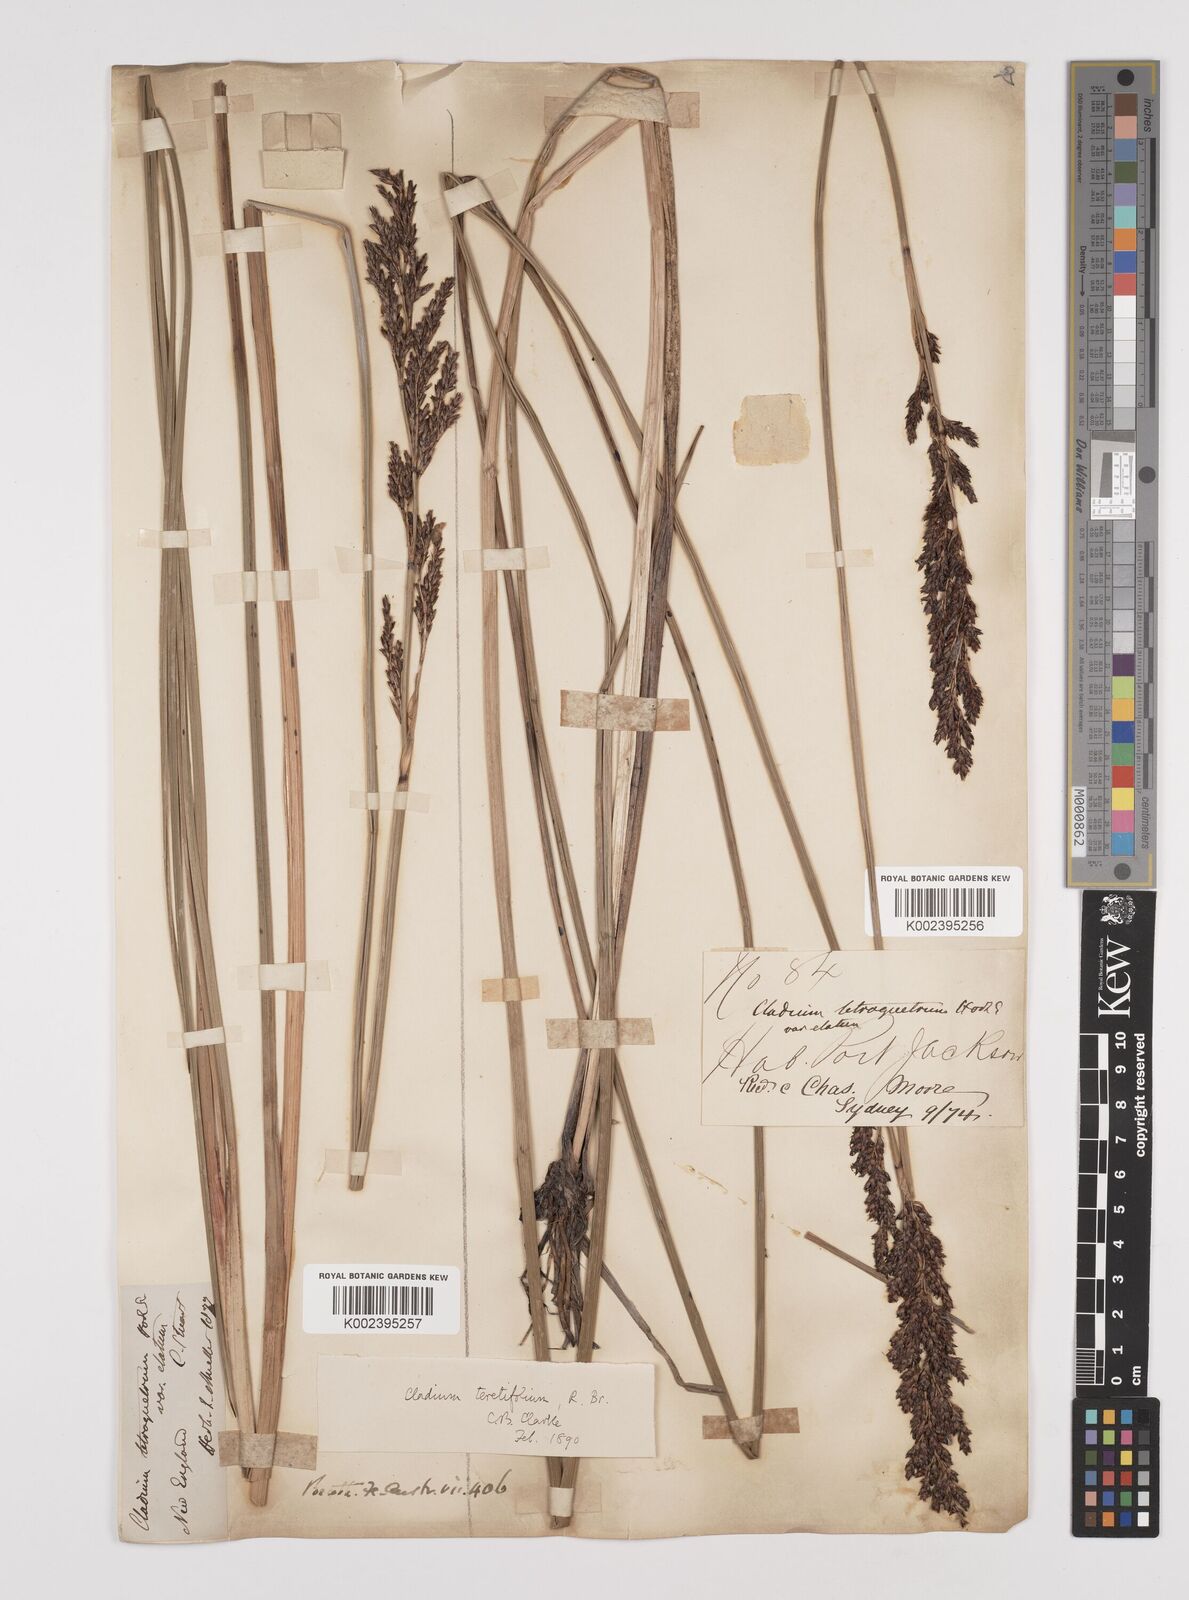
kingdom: Plantae
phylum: Tracheophyta
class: Liliopsida
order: Poales
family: Cyperaceae
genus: Machaerina
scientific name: Machaerina tetragona
